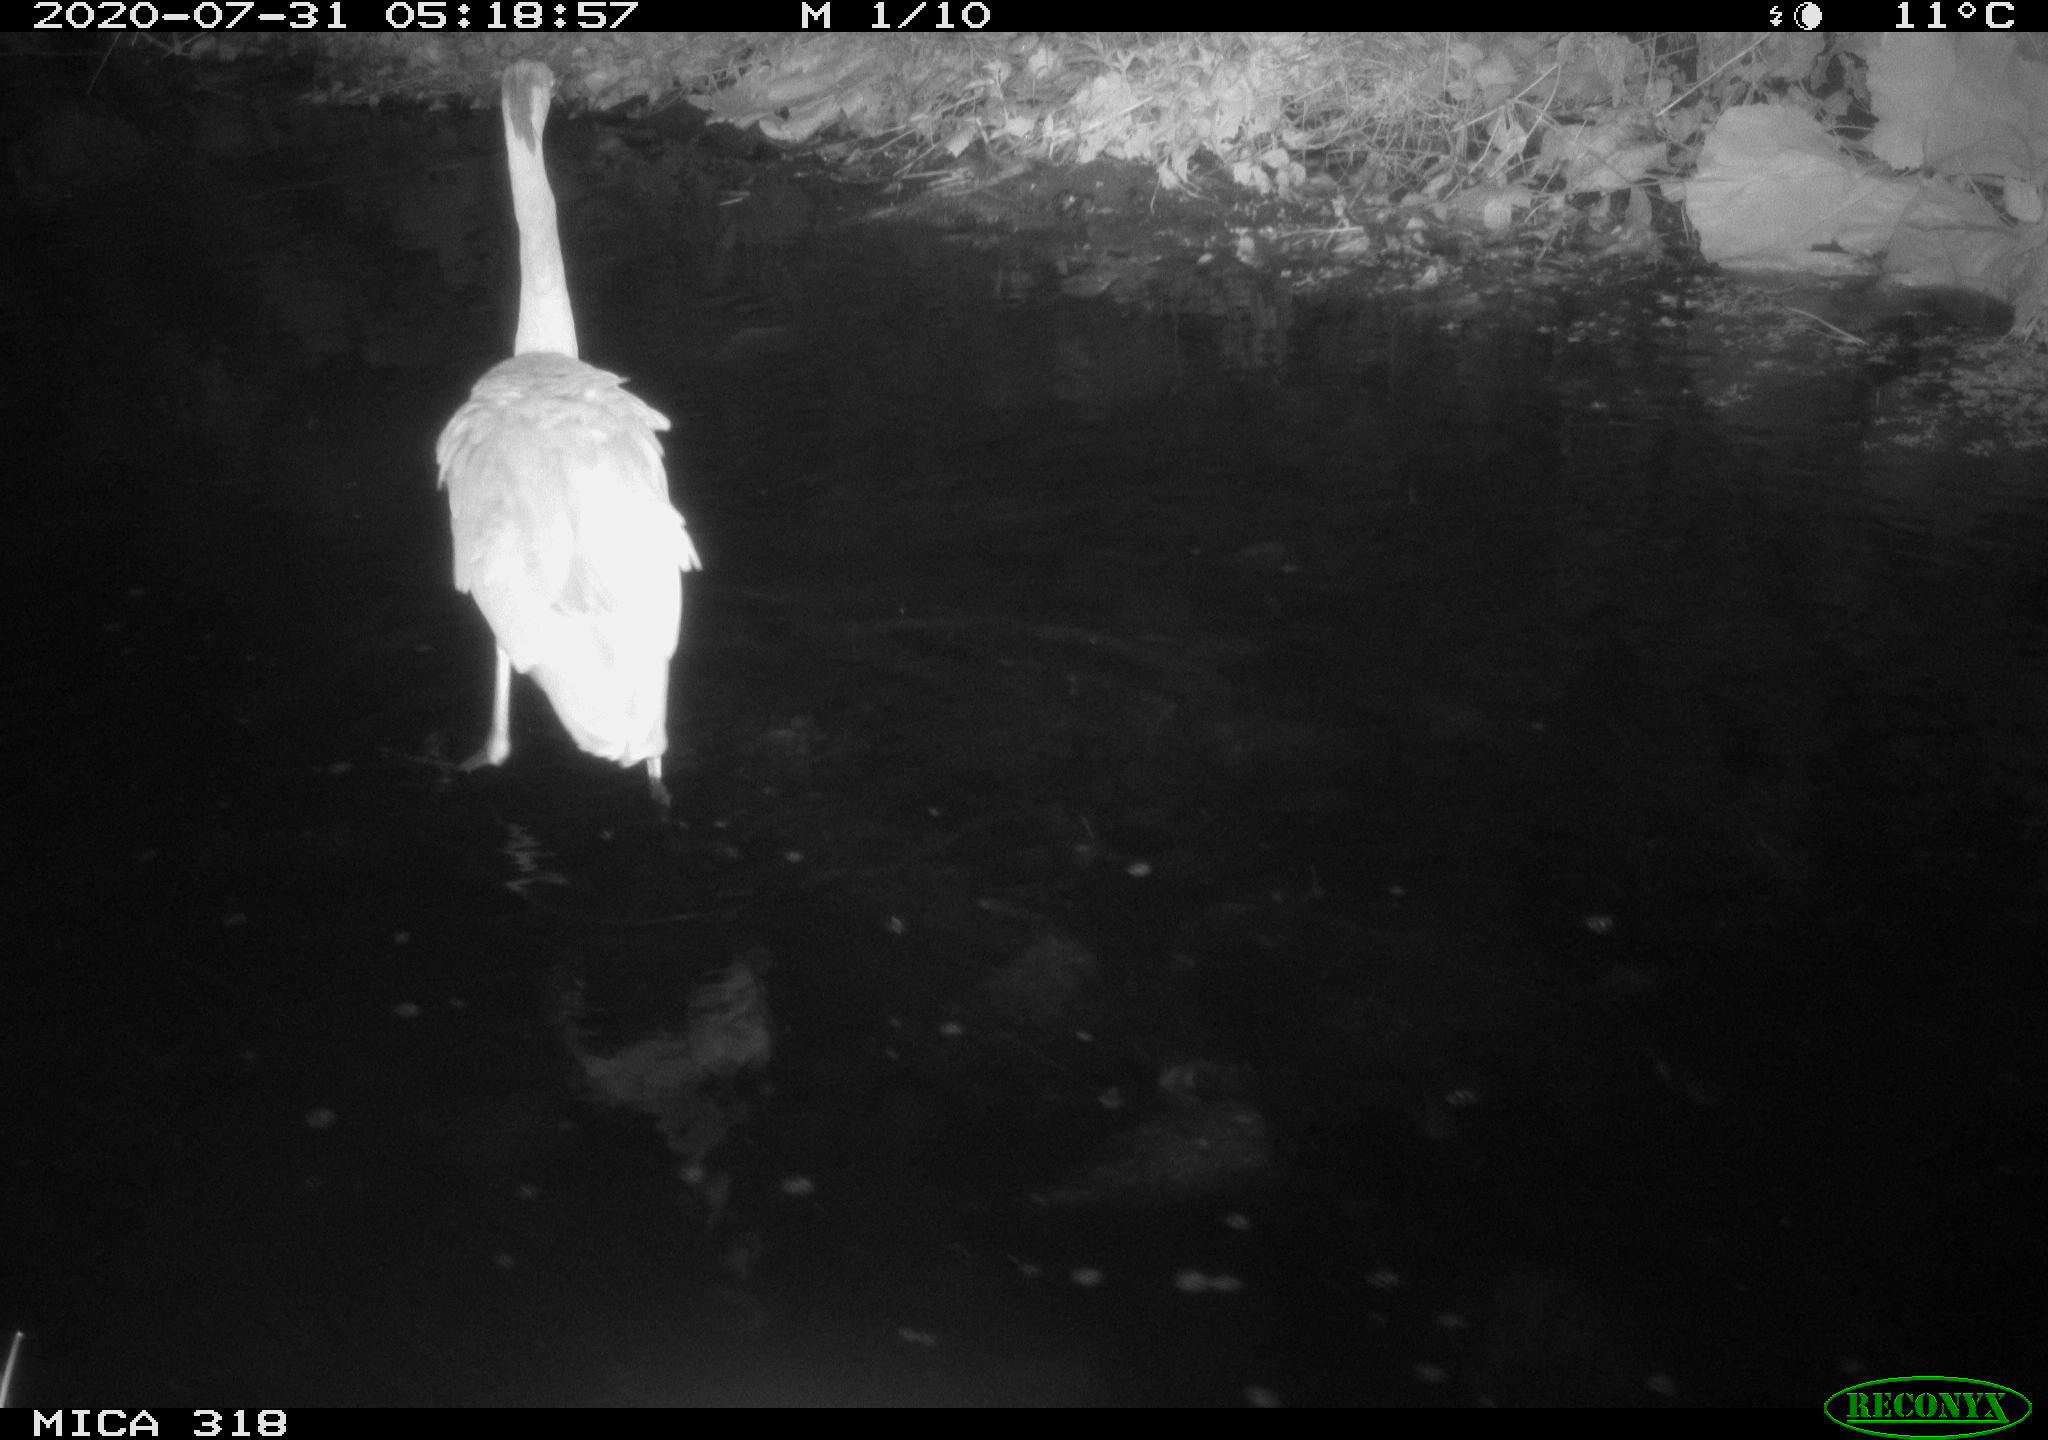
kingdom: Animalia
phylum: Chordata
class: Aves
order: Pelecaniformes
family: Ardeidae
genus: Ardea
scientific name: Ardea cinerea
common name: Grey heron
